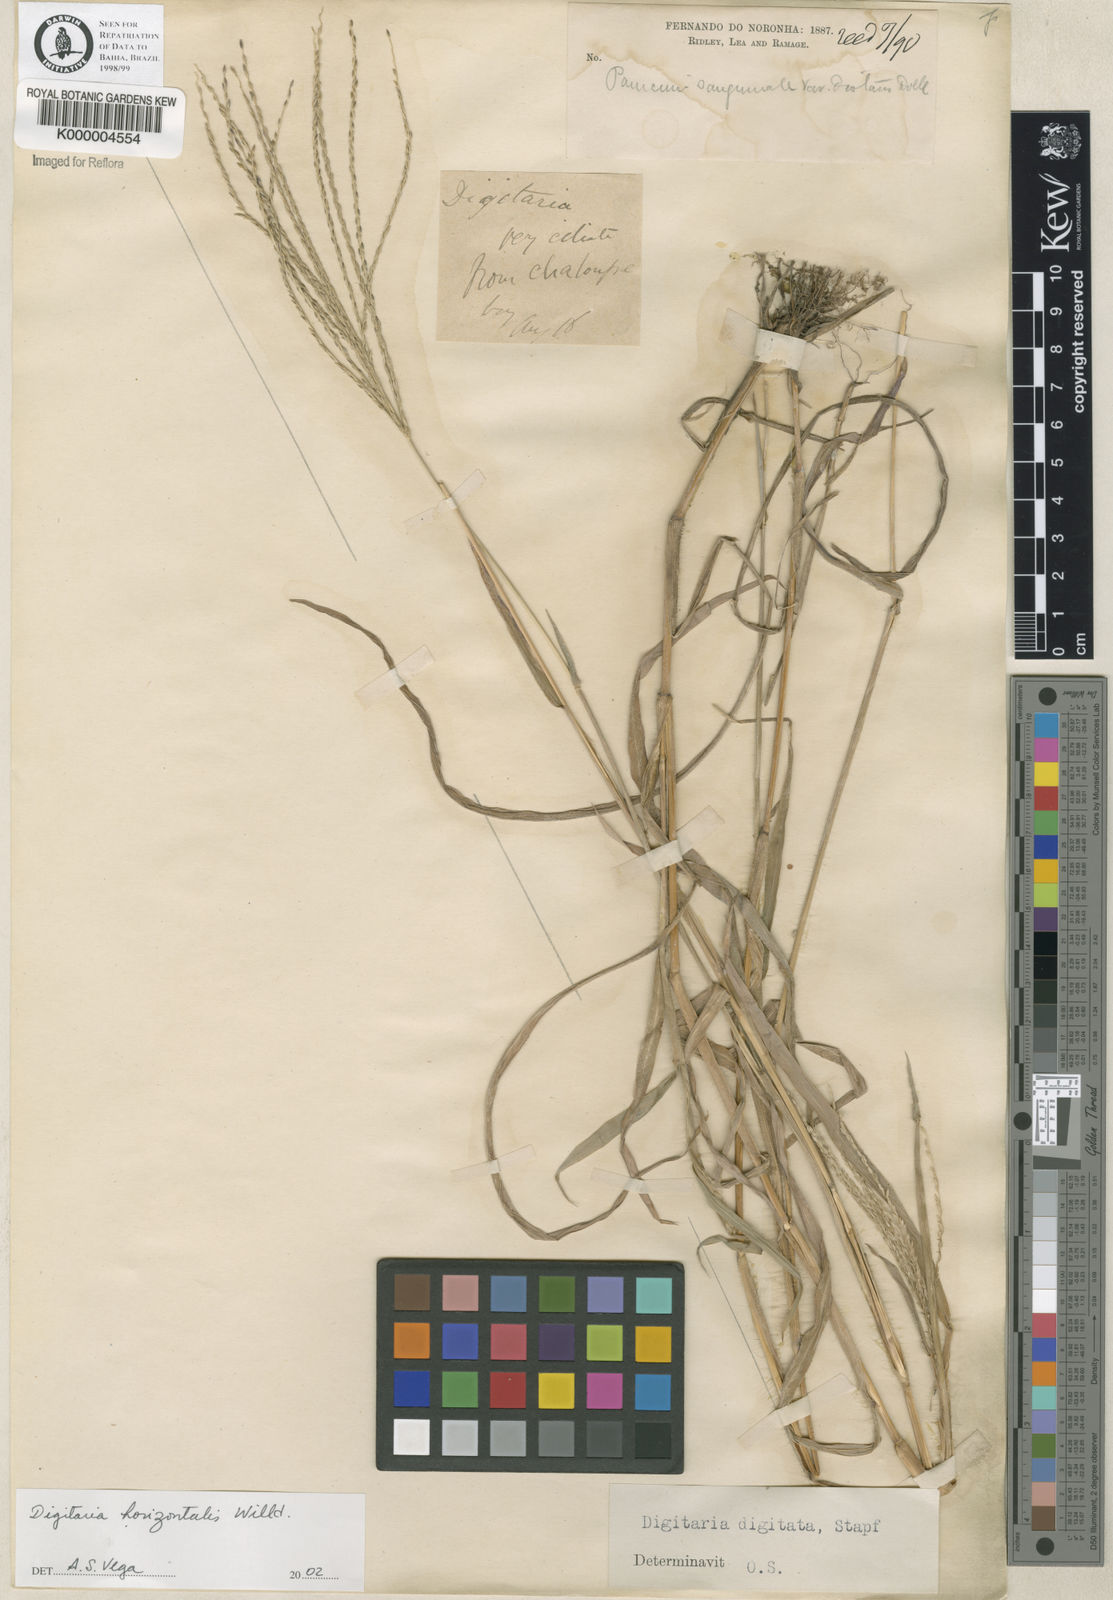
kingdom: Plantae
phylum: Tracheophyta
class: Liliopsida
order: Poales
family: Poaceae
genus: Digitaria
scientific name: Digitaria ciliaris
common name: Tropical finger-grass
